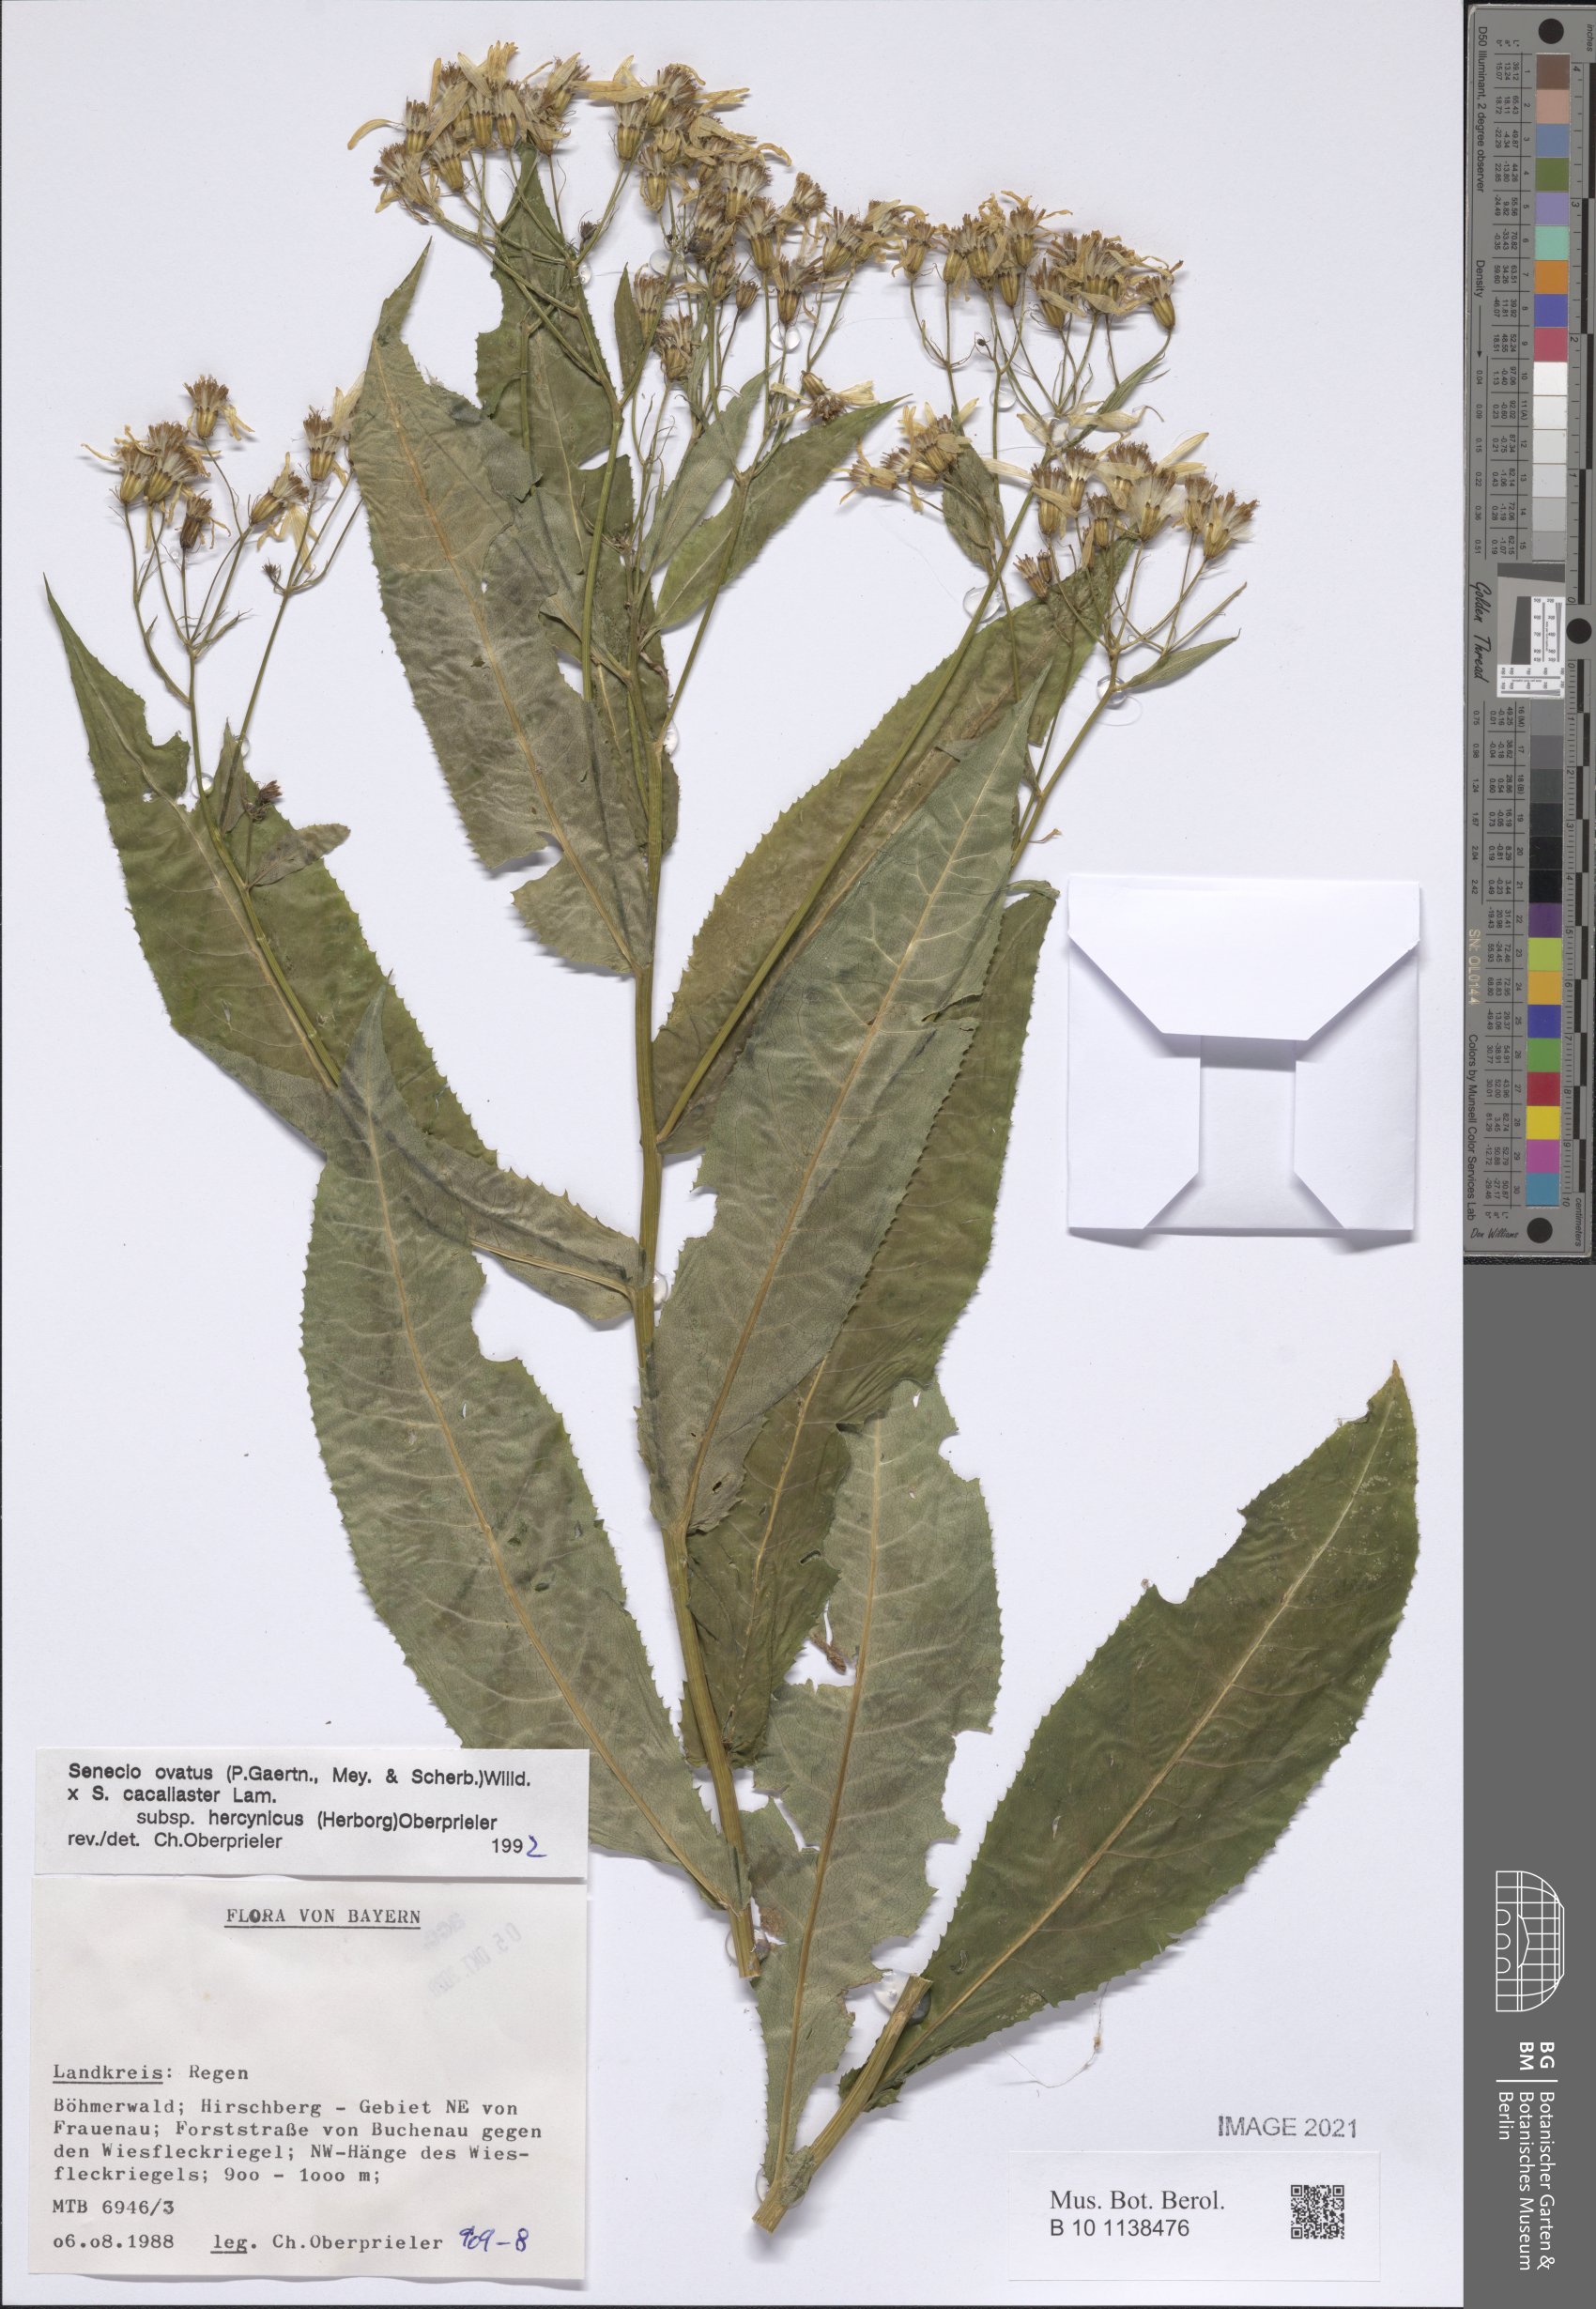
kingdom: Plantae
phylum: Tracheophyta
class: Magnoliopsida
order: Asterales
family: Asteraceae
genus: Senecio
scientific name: Senecio ovatus
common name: Wood ragwort
